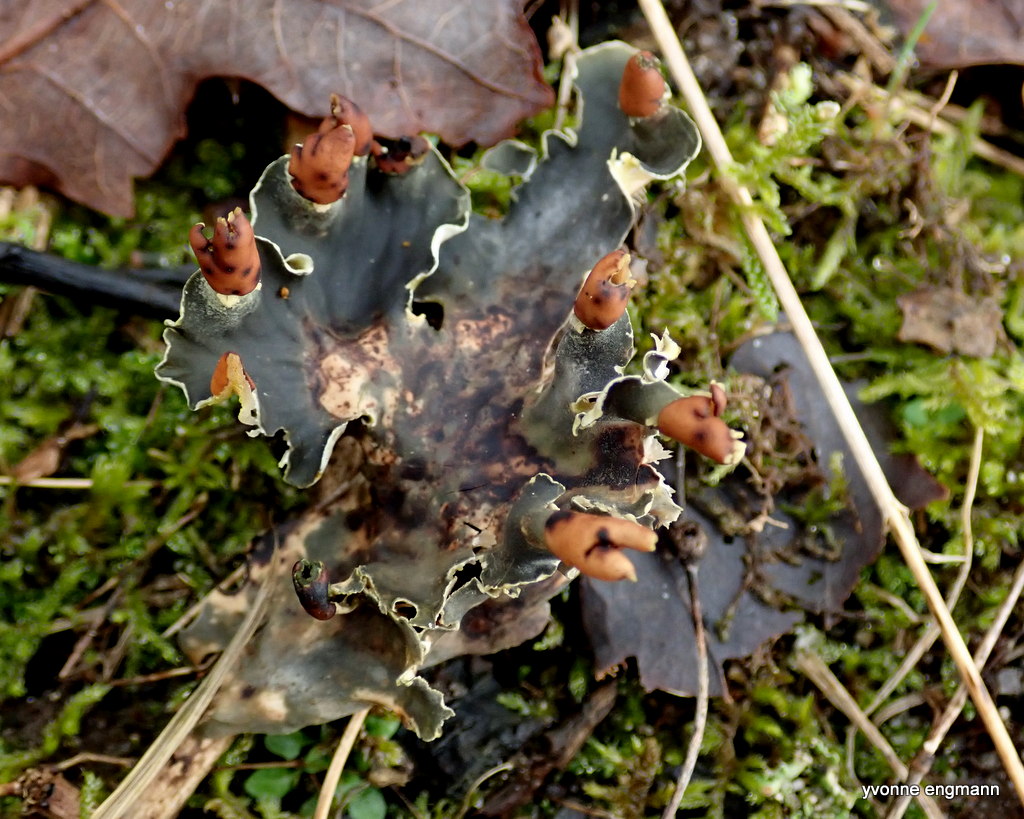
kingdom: Fungi
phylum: Ascomycota
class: Lecanoromycetes
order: Peltigerales
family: Peltigeraceae
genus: Peltigera
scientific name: Peltigera didactyla
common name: liden skjoldlav
